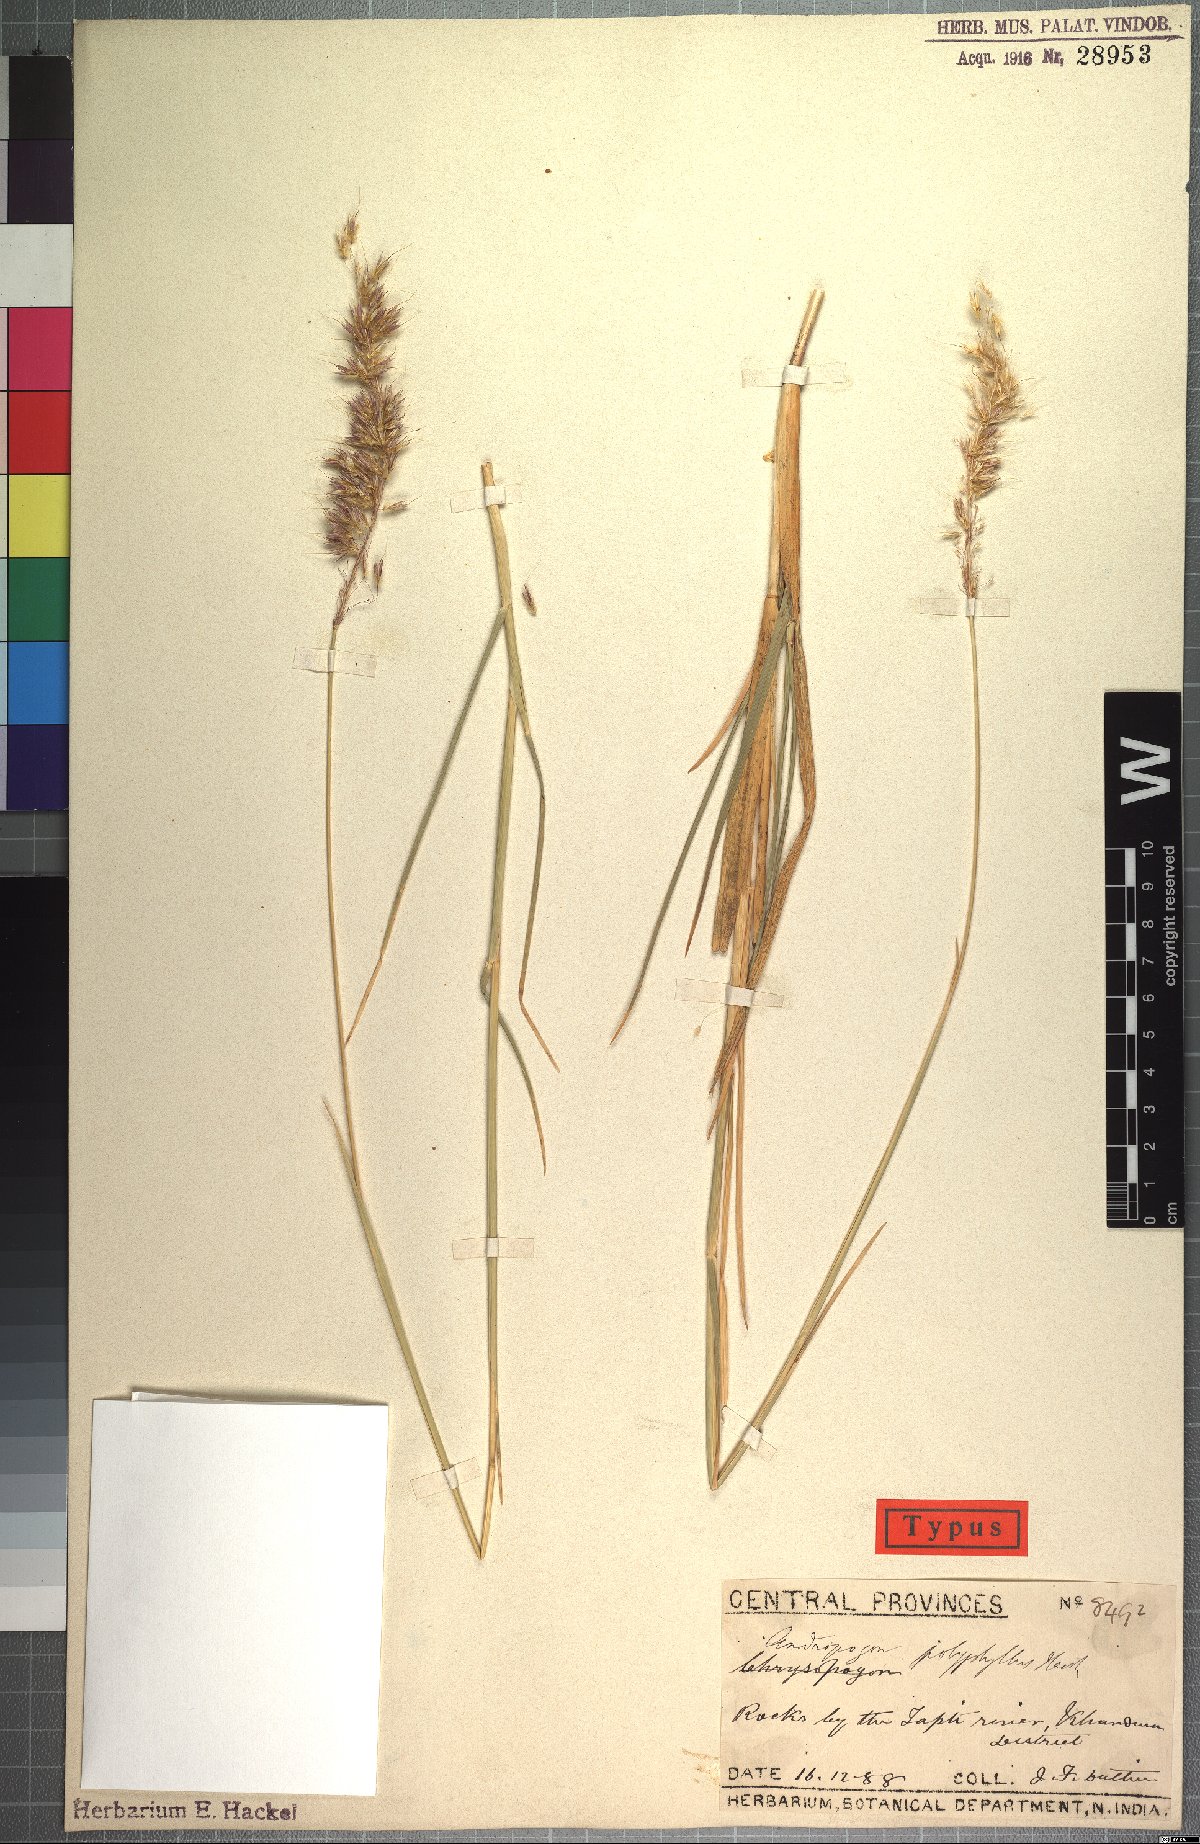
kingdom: Plantae
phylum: Tracheophyta
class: Liliopsida
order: Poales
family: Poaceae
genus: Chrysopogon
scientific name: Chrysopogon polyphyllus
